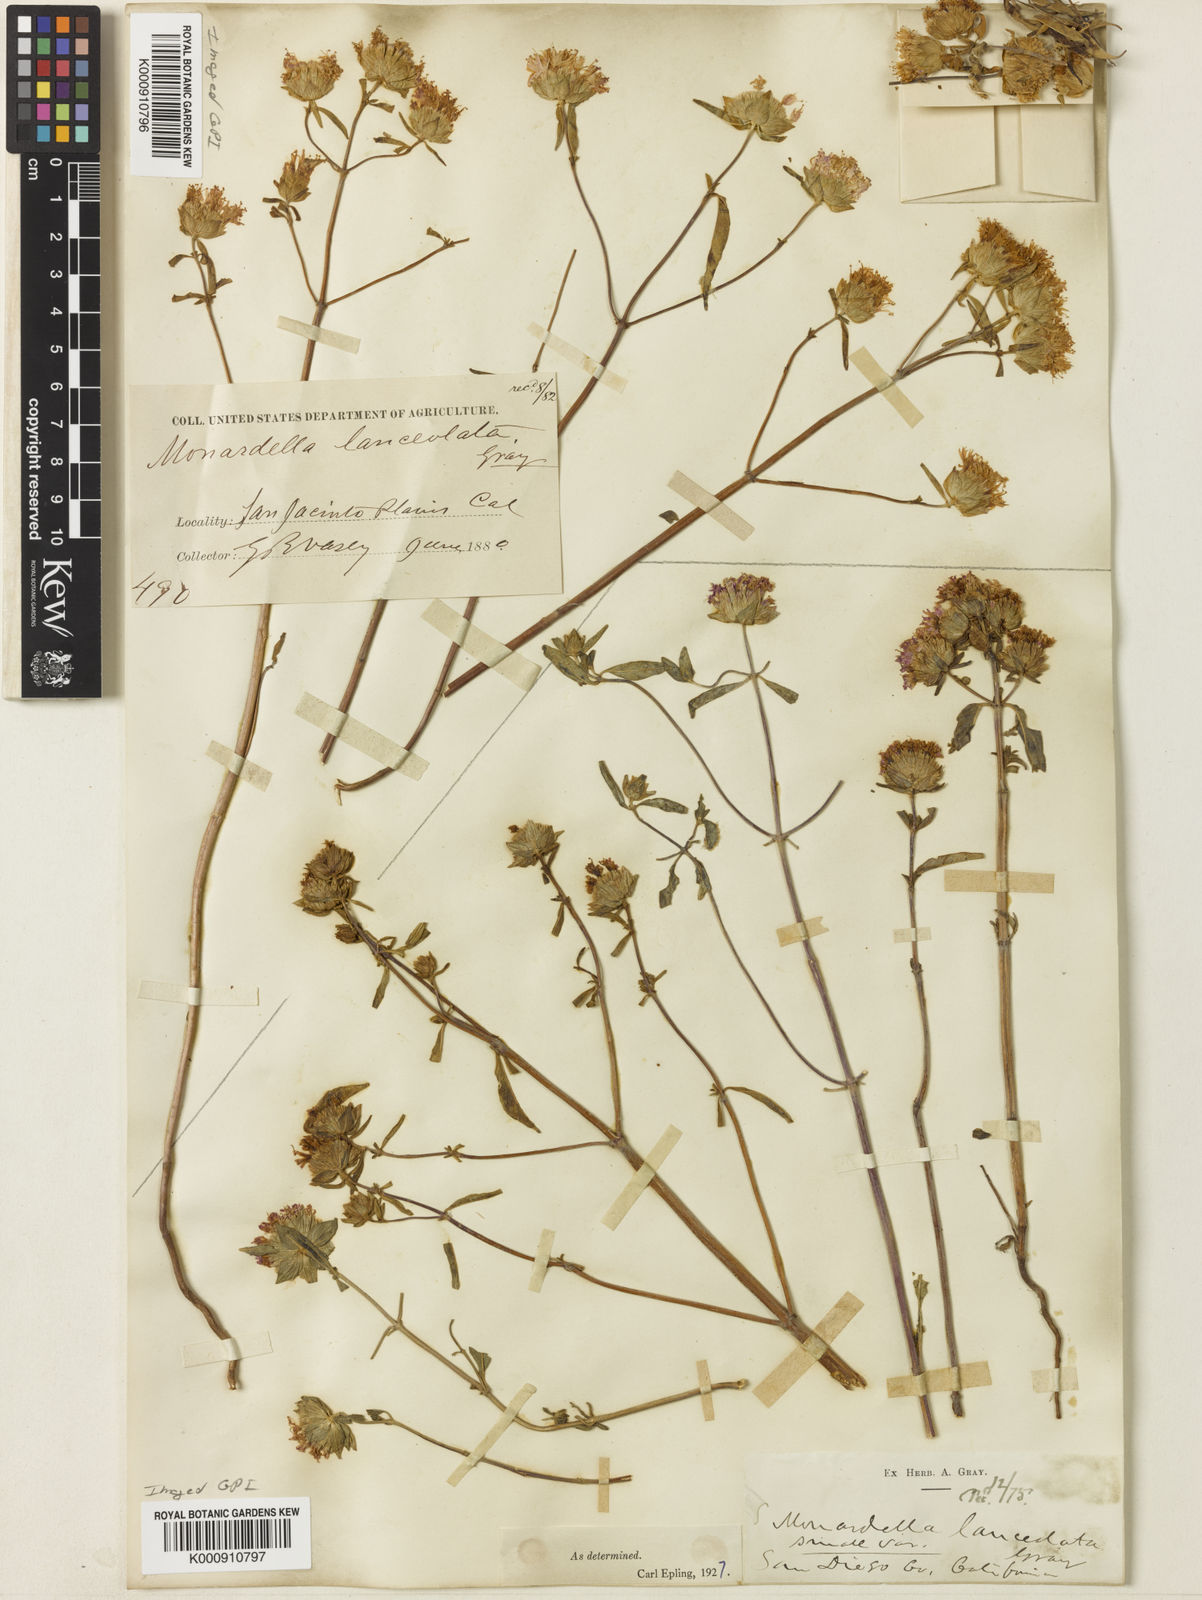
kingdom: Plantae
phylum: Tracheophyta
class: Magnoliopsida
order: Lamiales
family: Lamiaceae
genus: Monardella
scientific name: Monardella breweri
